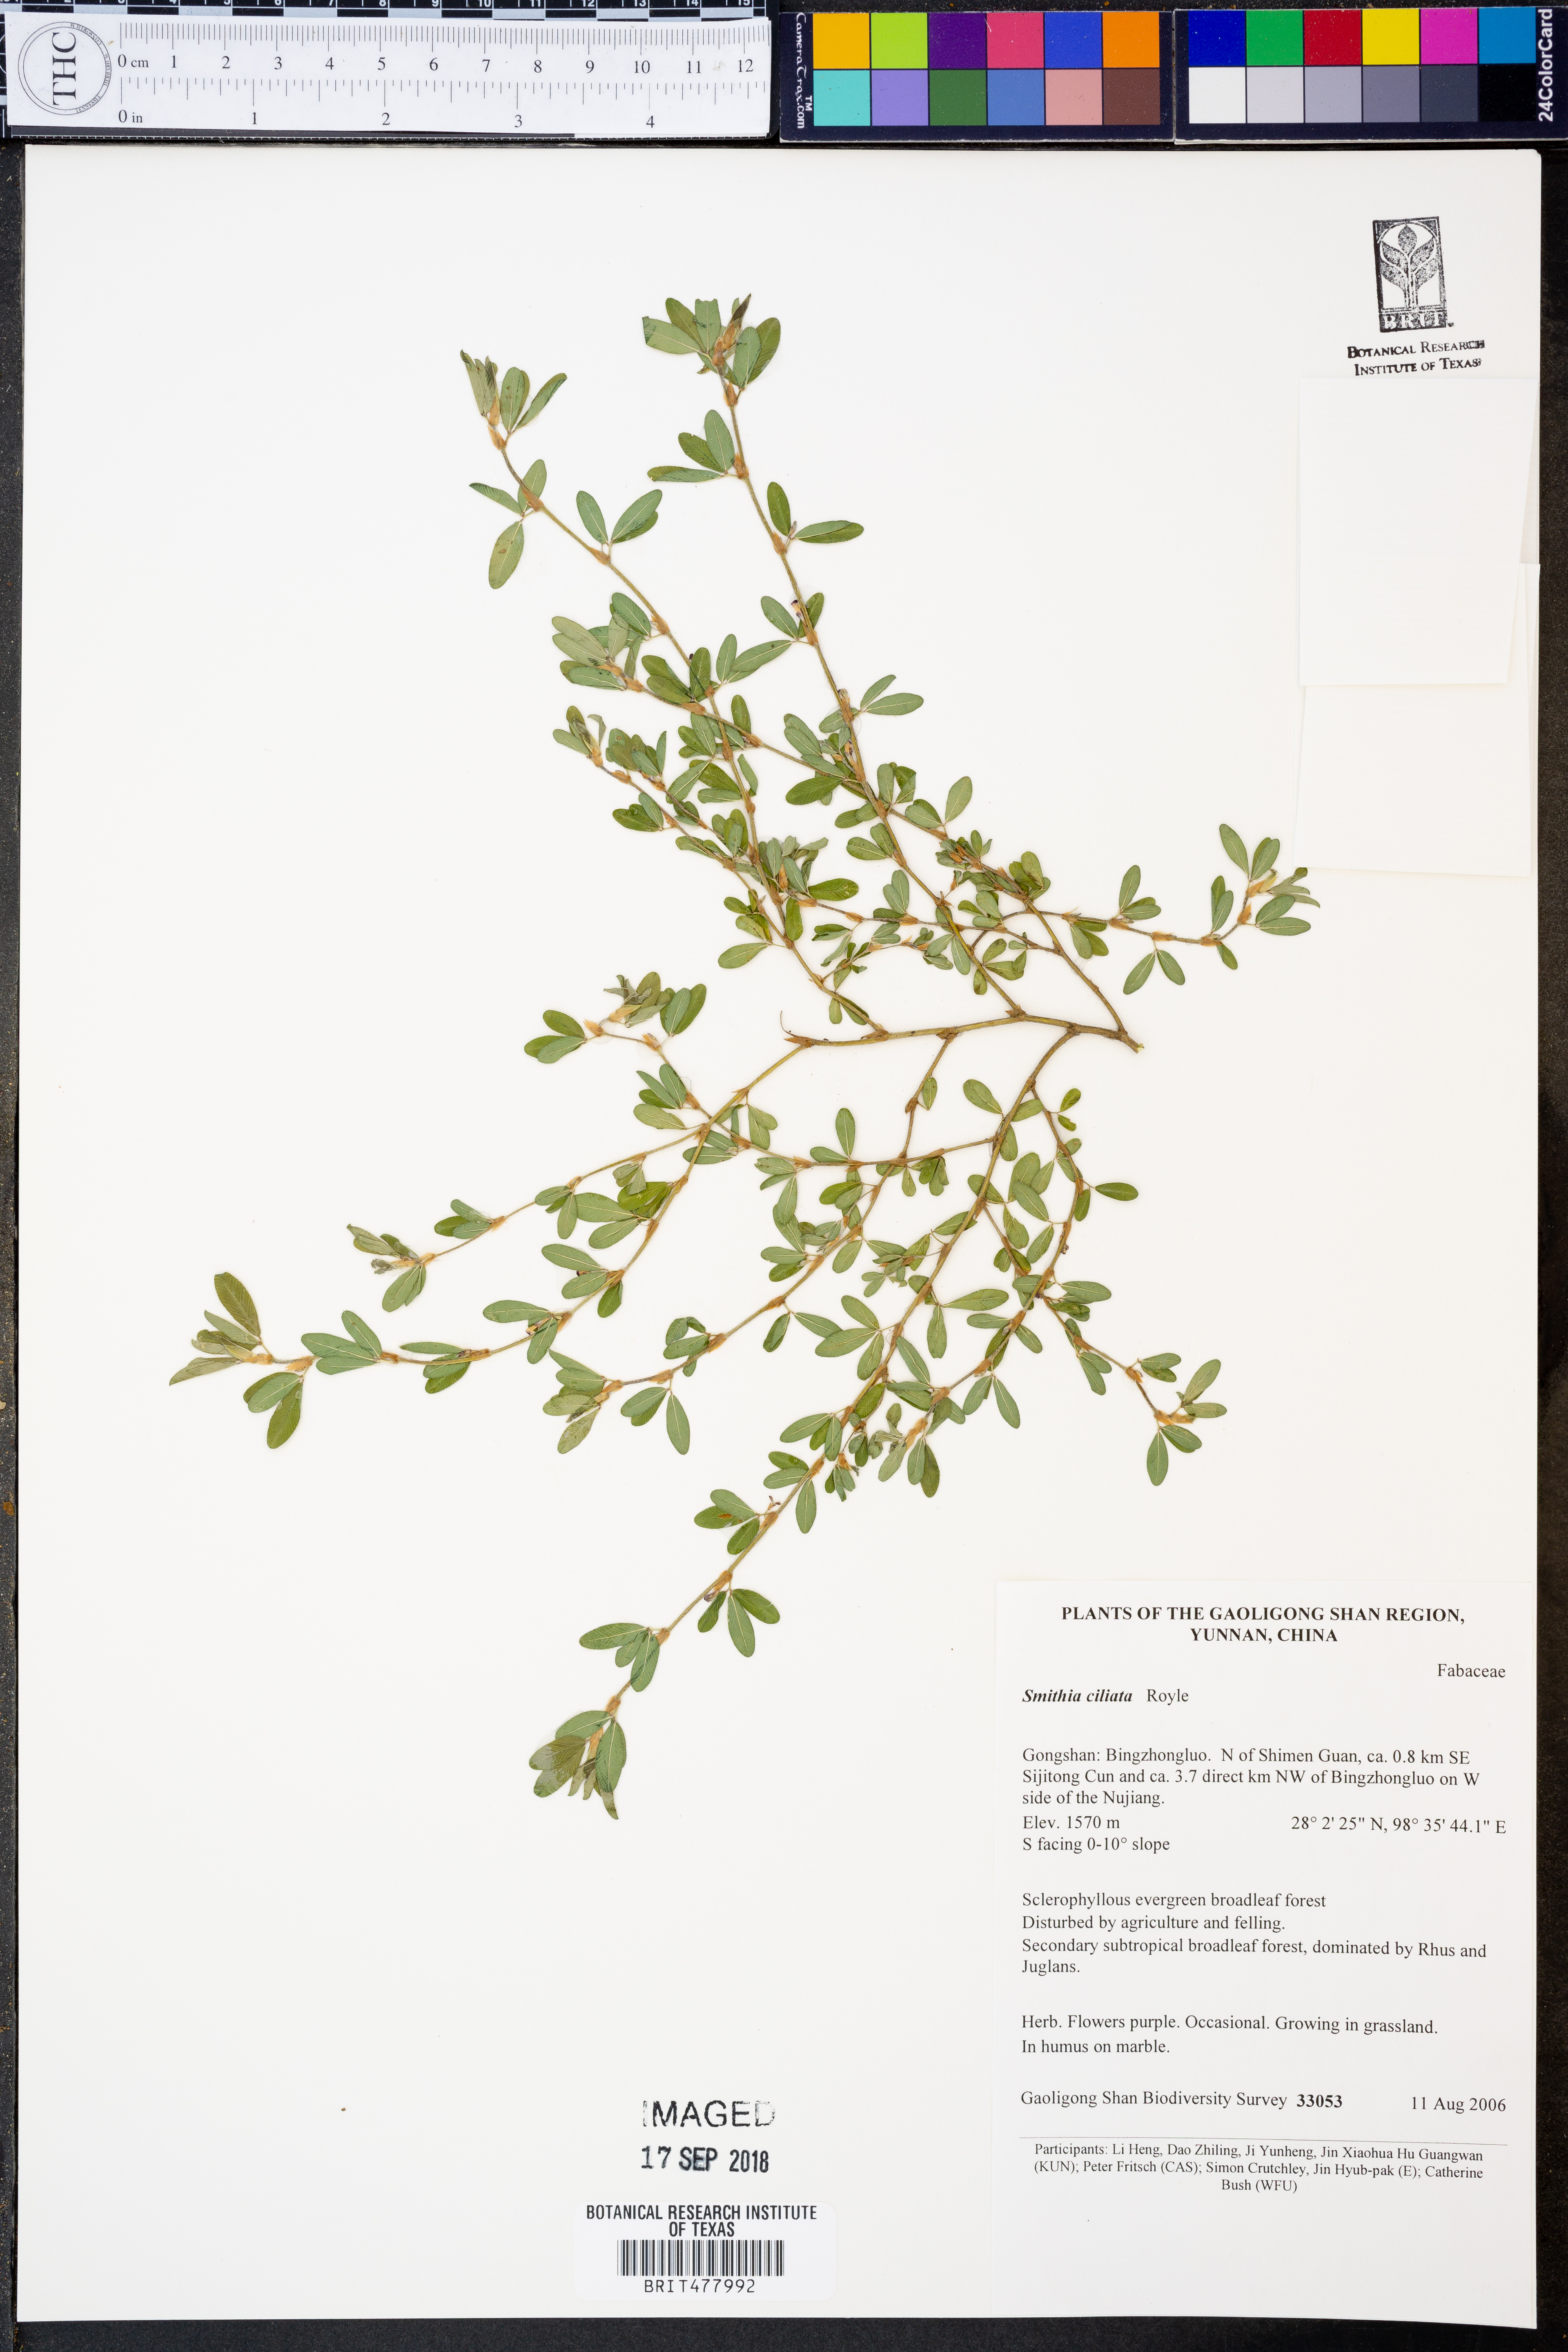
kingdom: Plantae
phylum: Tracheophyta
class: Magnoliopsida
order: Fabales
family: Fabaceae
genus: Smithia
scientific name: Smithia ciliata
